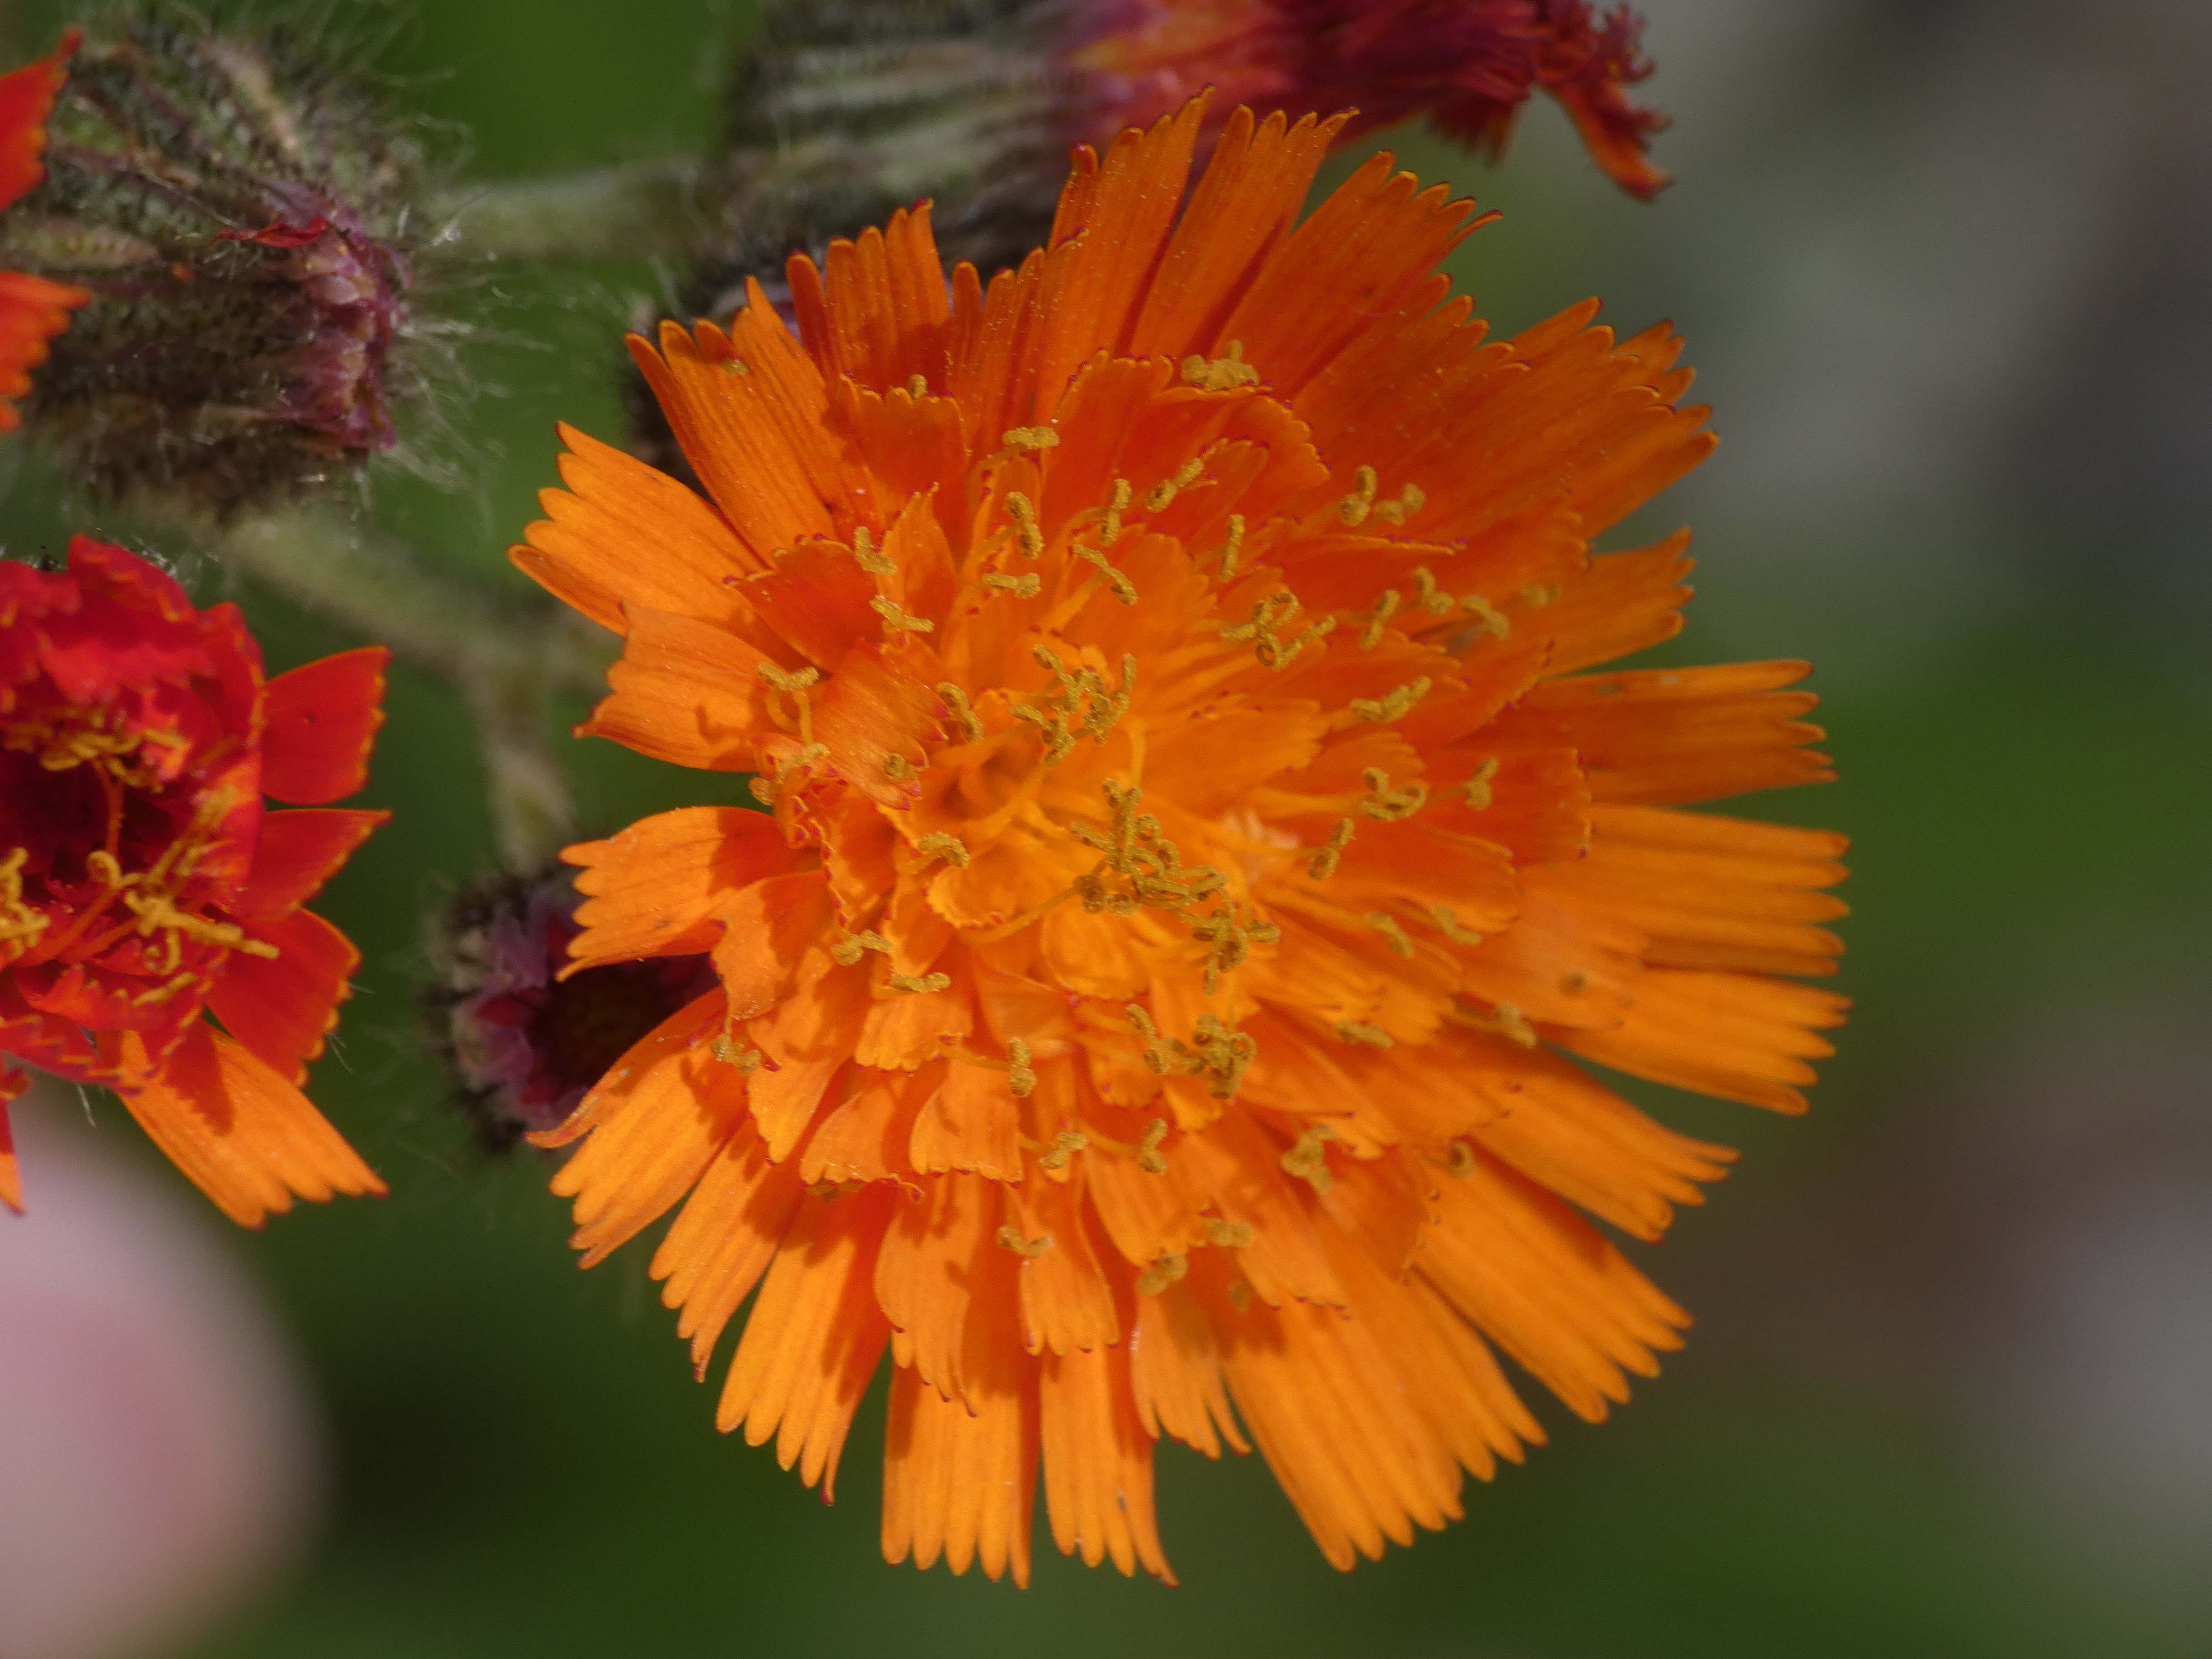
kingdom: Plantae
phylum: Tracheophyta
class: Magnoliopsida
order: Asterales
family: Asteraceae
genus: Pilosella
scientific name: Pilosella aurantiaca
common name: Pomerans-høgeurt
